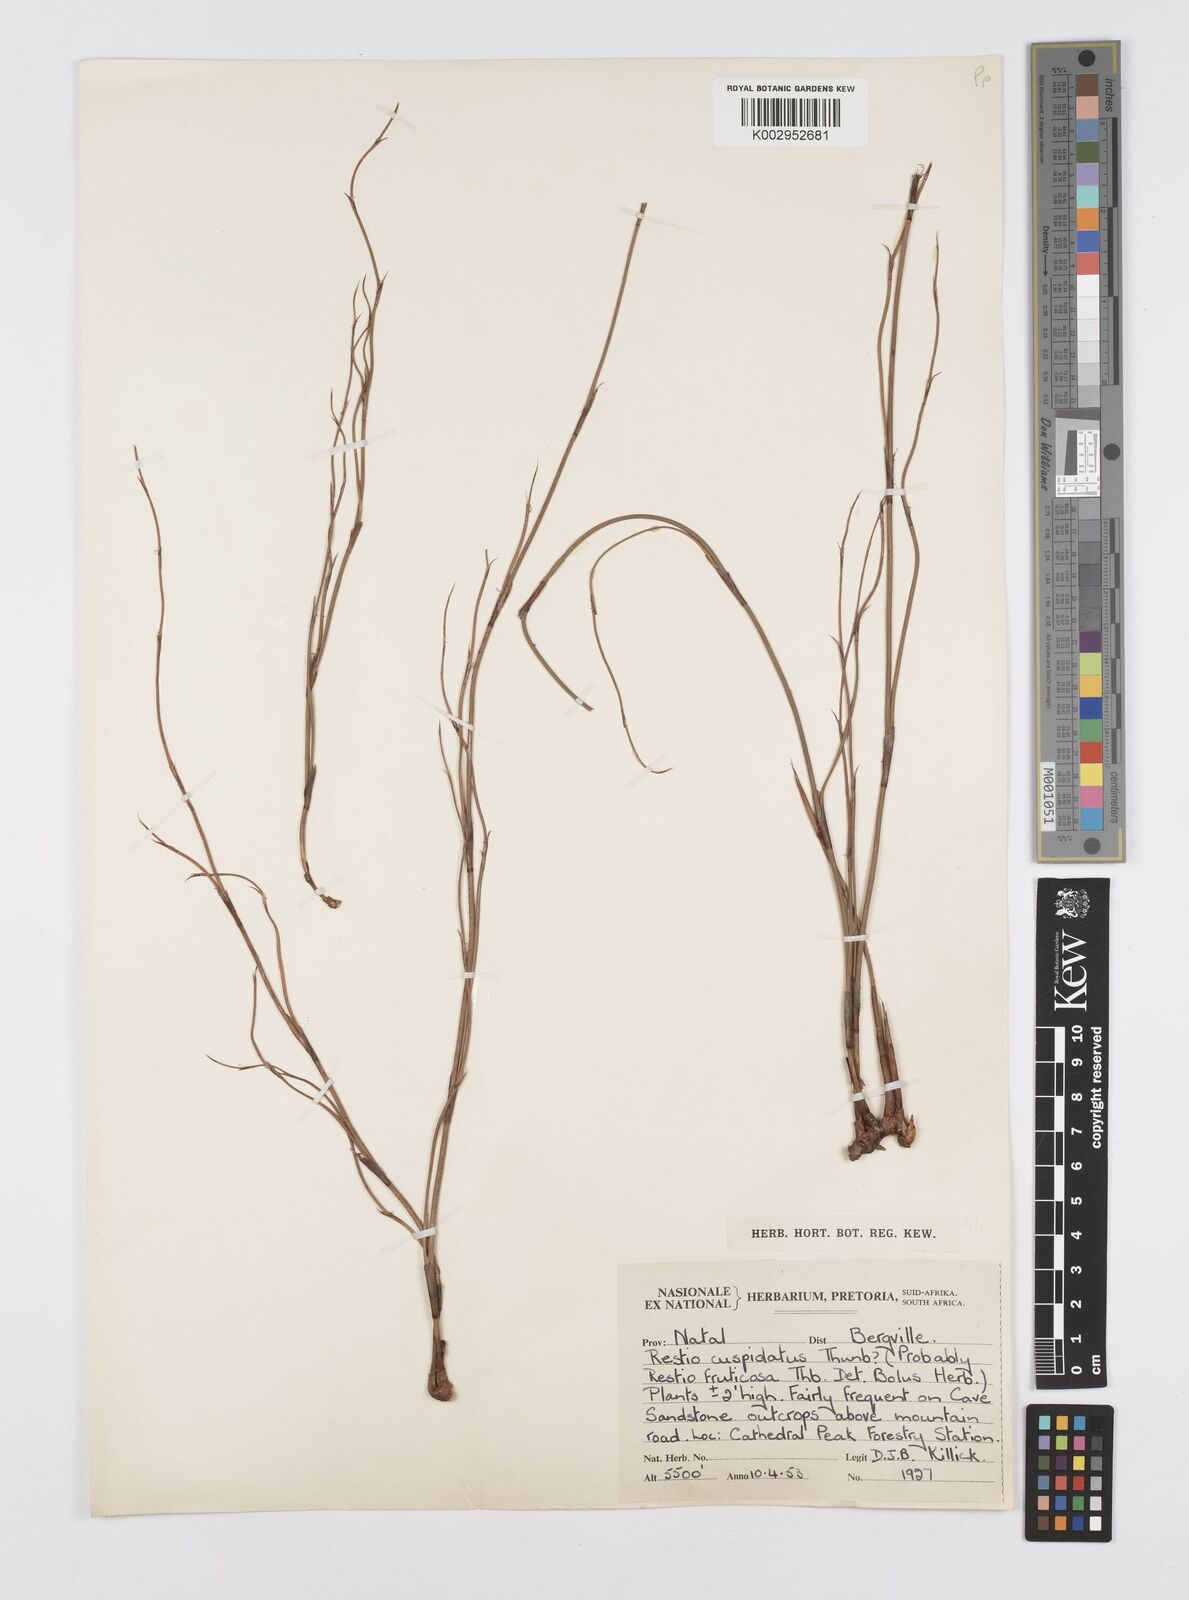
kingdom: Plantae
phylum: Tracheophyta
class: Liliopsida
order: Poales
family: Restionaceae
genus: Restio
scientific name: Restio longiaristatus
